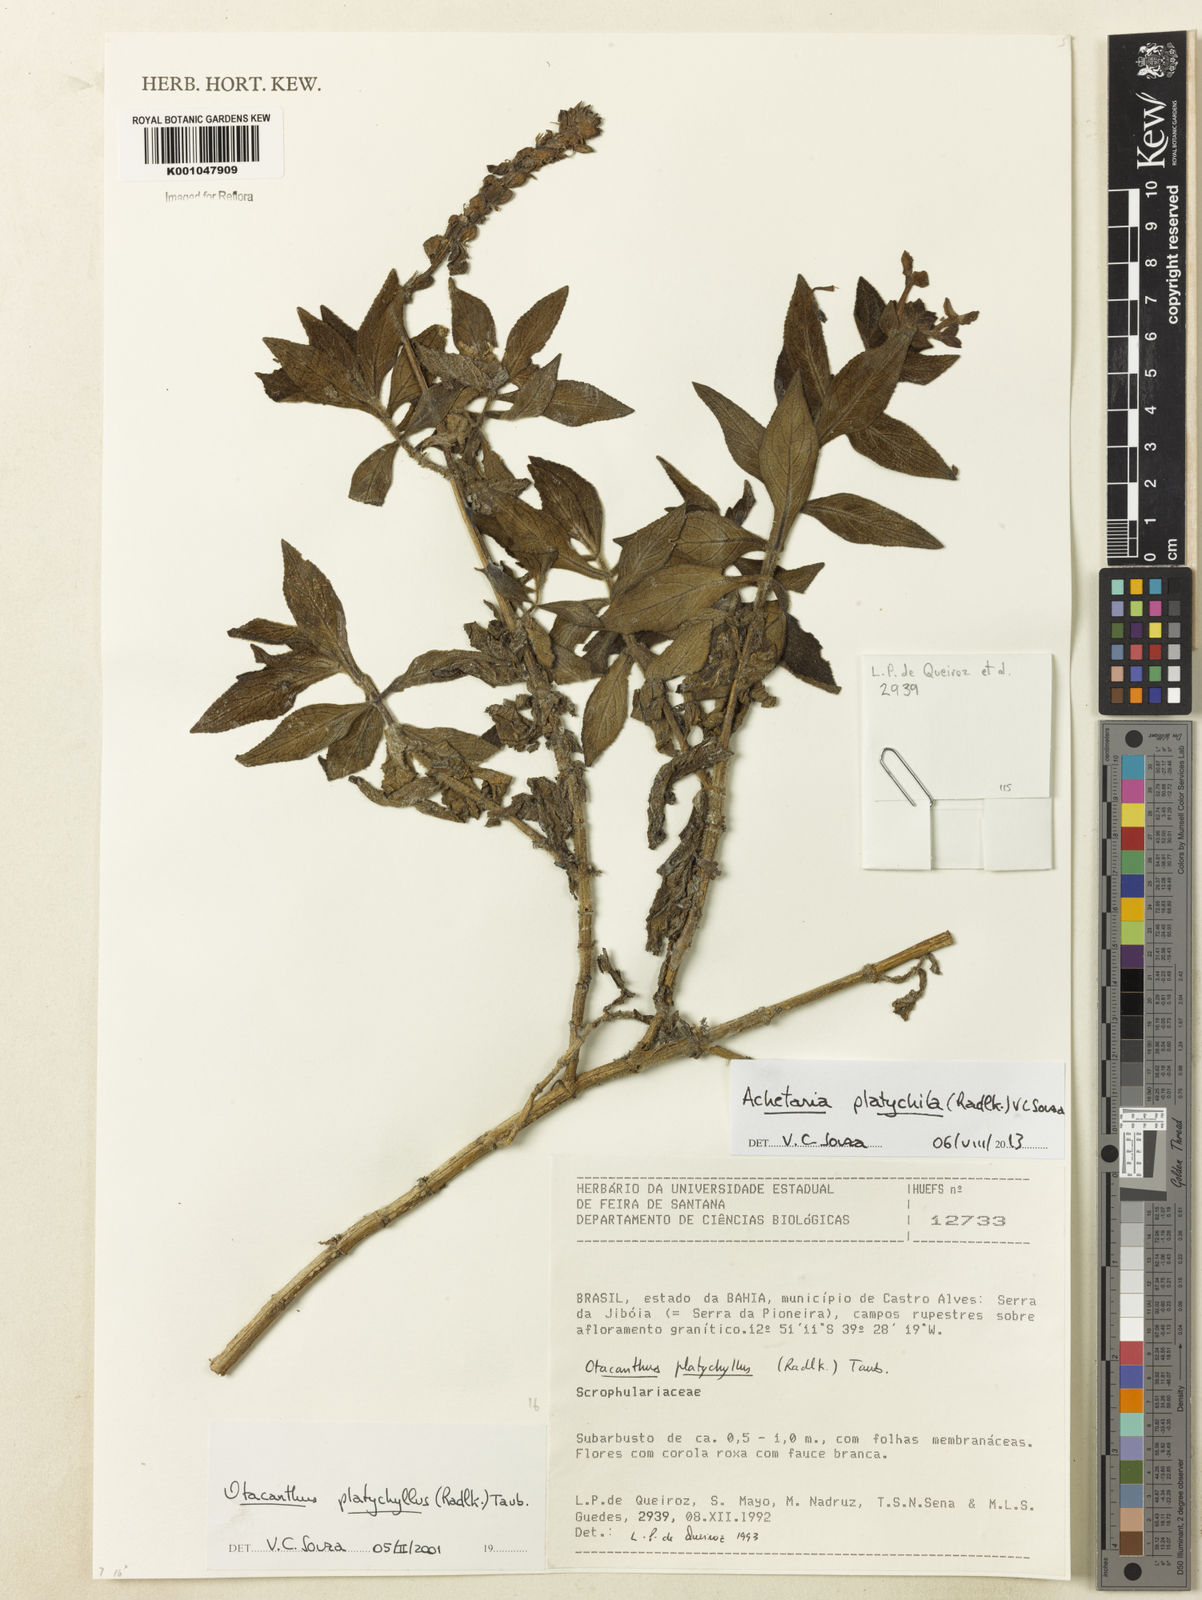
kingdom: Plantae
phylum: Tracheophyta
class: Magnoliopsida
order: Lamiales
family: Plantaginaceae
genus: Matourea
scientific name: Matourea platychila
